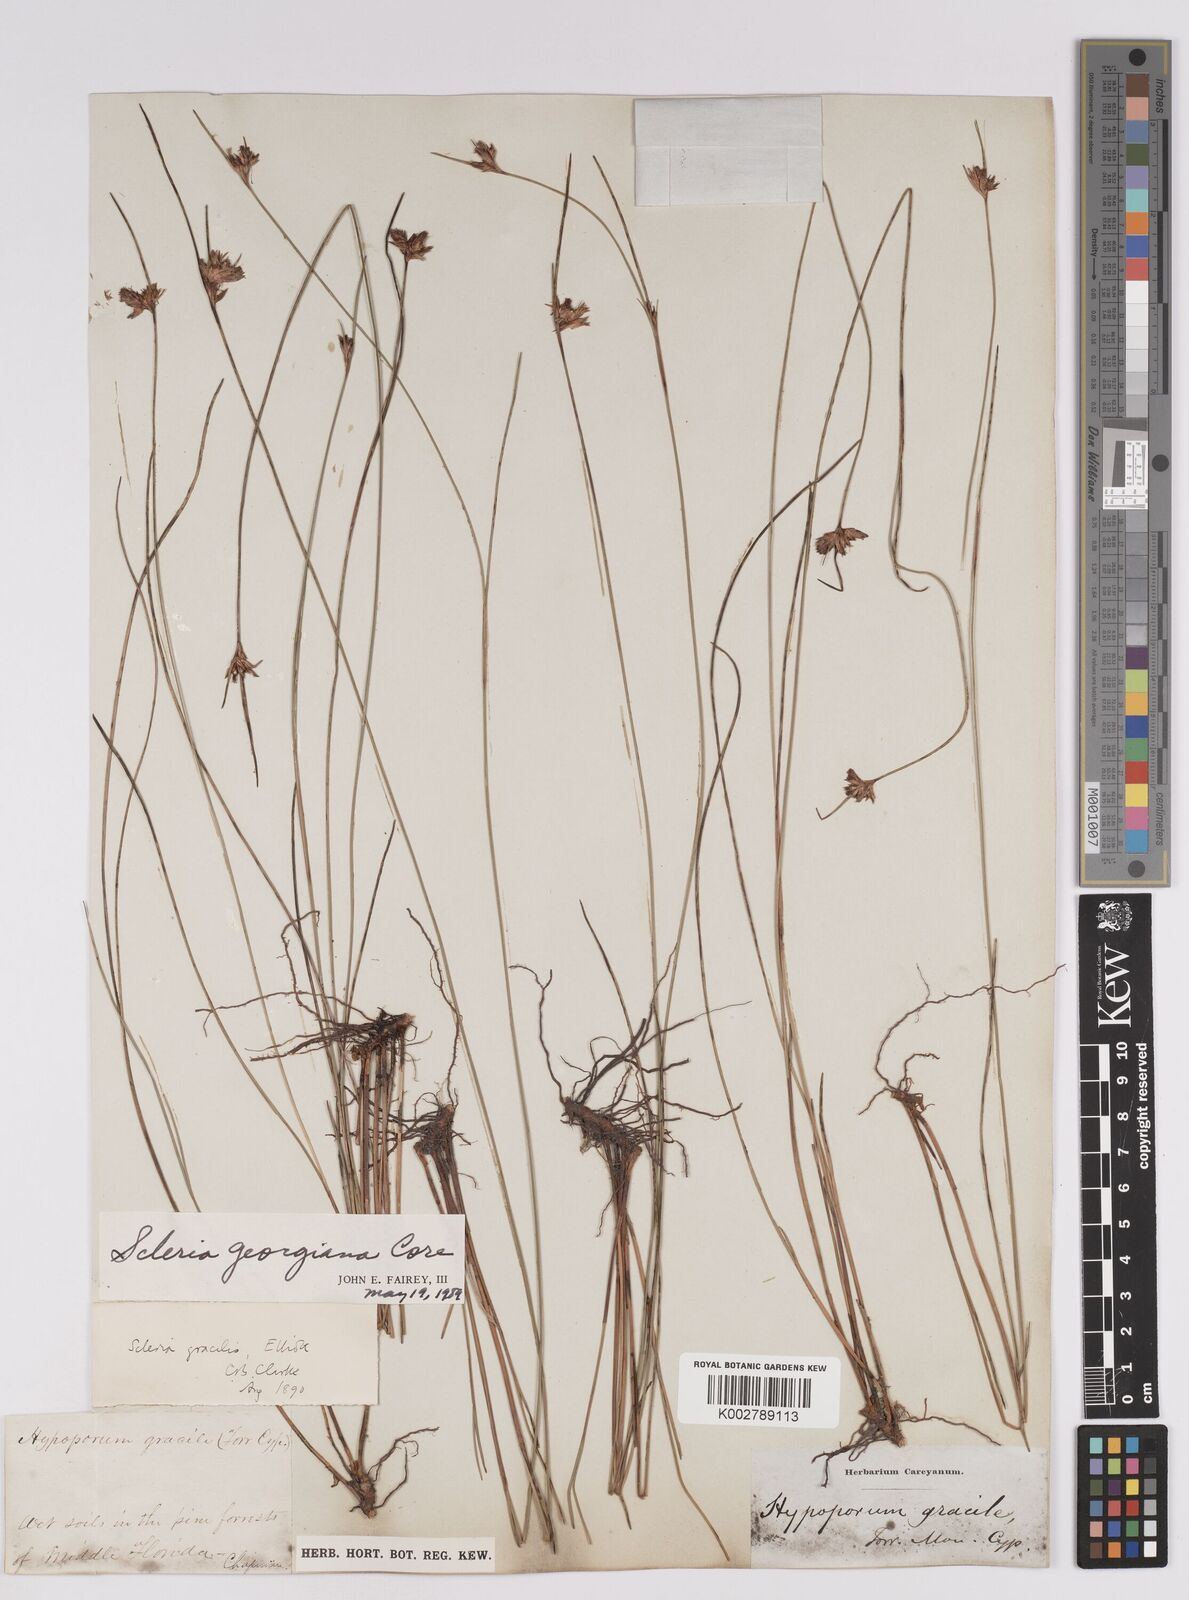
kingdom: Plantae
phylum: Tracheophyta
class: Liliopsida
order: Poales
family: Cyperaceae
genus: Scleria
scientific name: Scleria georgiana
